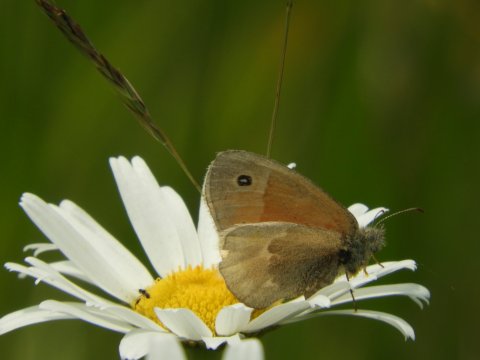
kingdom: Animalia
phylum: Arthropoda
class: Insecta
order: Lepidoptera
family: Nymphalidae
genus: Coenonympha
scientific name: Coenonympha tullia
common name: Large Heath
